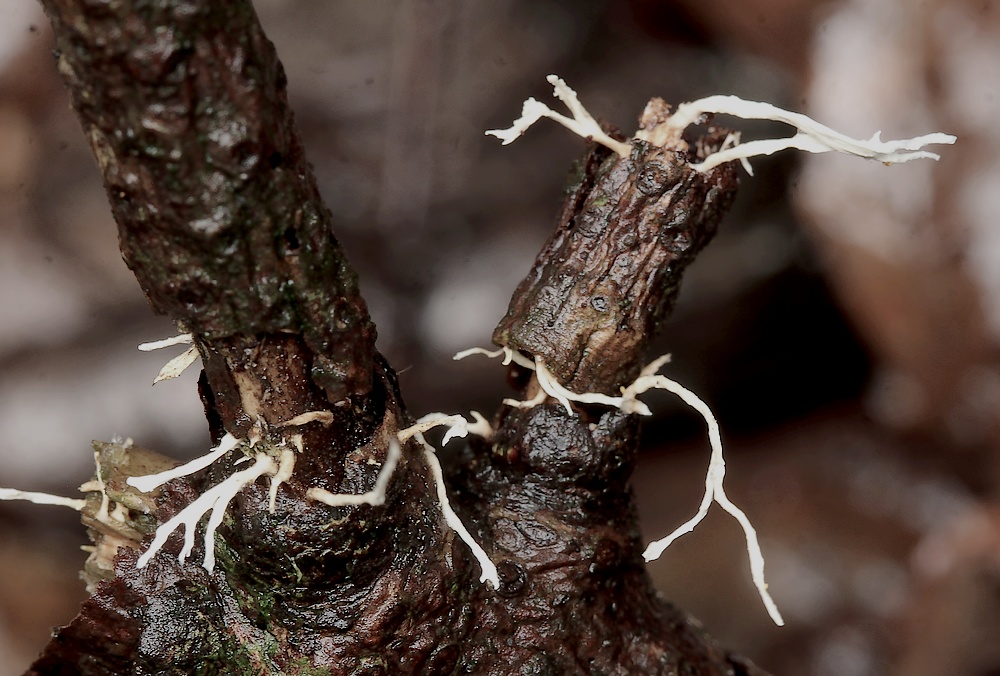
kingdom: Fungi
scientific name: Fungi
